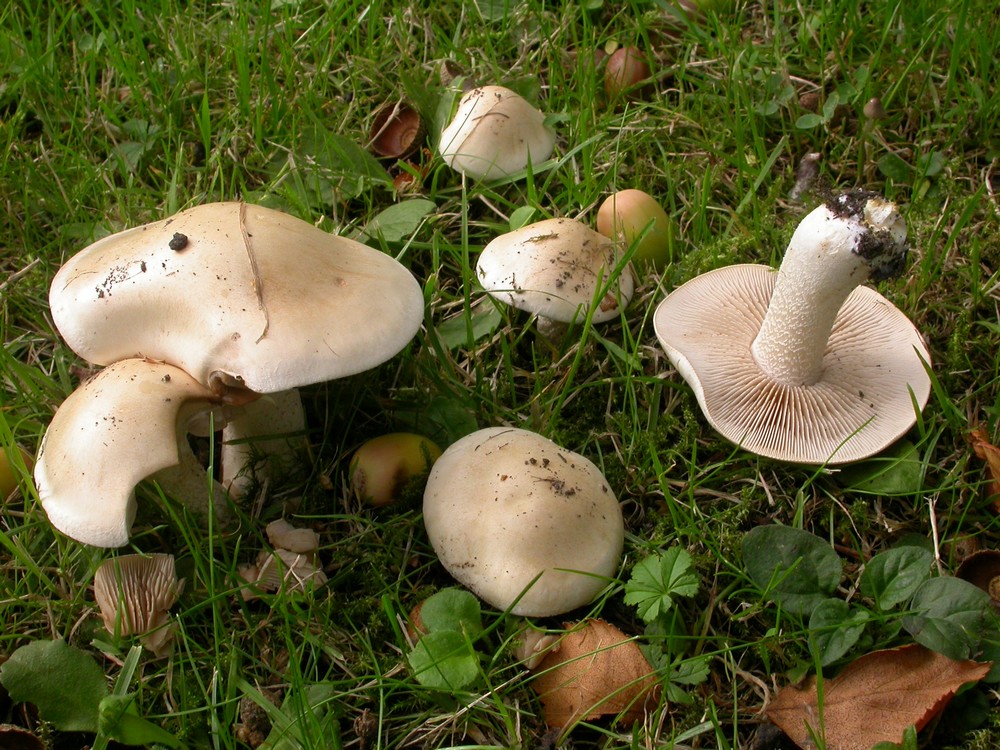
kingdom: Fungi
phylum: Basidiomycota
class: Agaricomycetes
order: Agaricales
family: Hymenogastraceae
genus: Hebeloma
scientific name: Hebeloma crustuliniforme
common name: almindelig tåreblad
